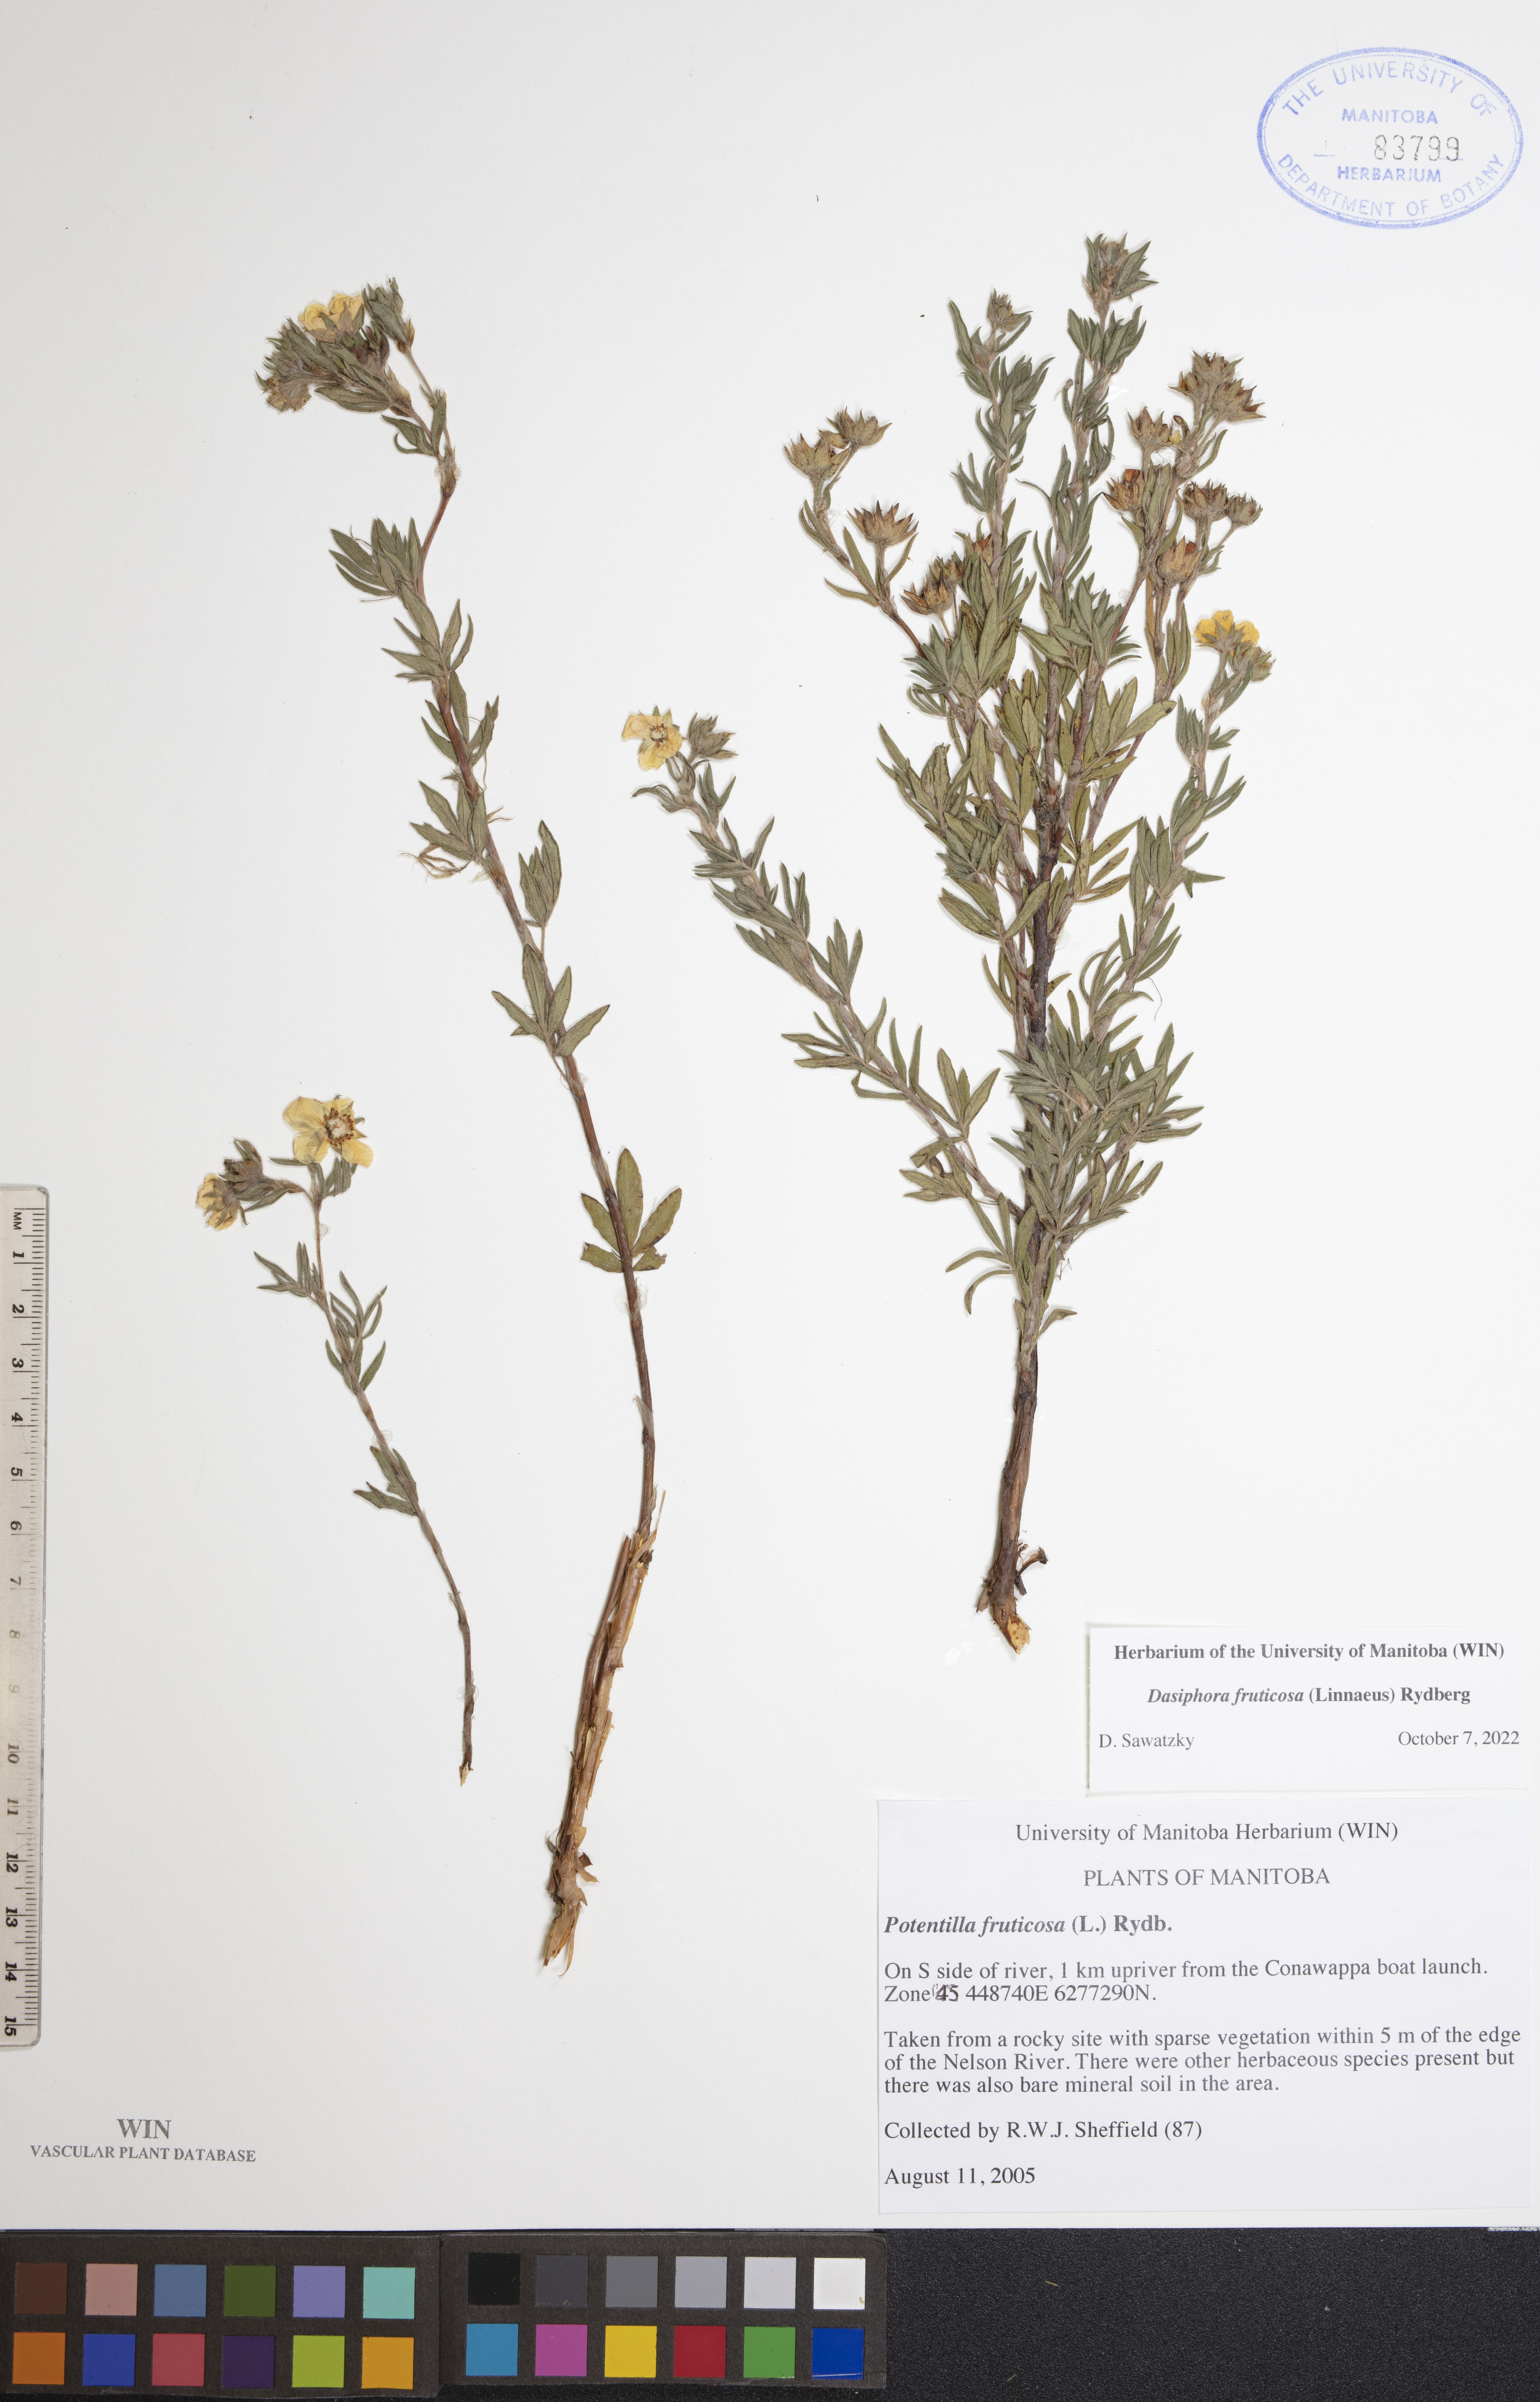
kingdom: Plantae
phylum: Tracheophyta
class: Magnoliopsida
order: Rosales
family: Rosaceae
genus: Dasiphora
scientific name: Dasiphora fruticosa
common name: Shrubby cinquefoil
